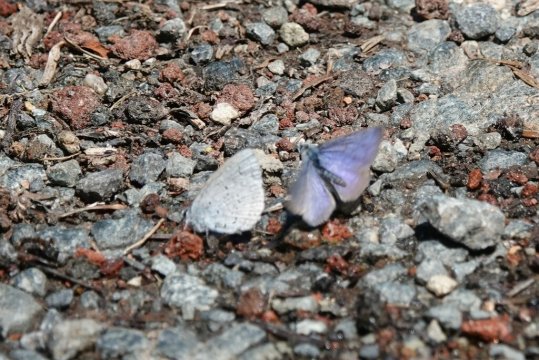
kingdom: Animalia
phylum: Arthropoda
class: Insecta
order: Lepidoptera
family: Lycaenidae
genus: Celastrina
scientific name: Celastrina ladon
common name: Echo Azure
